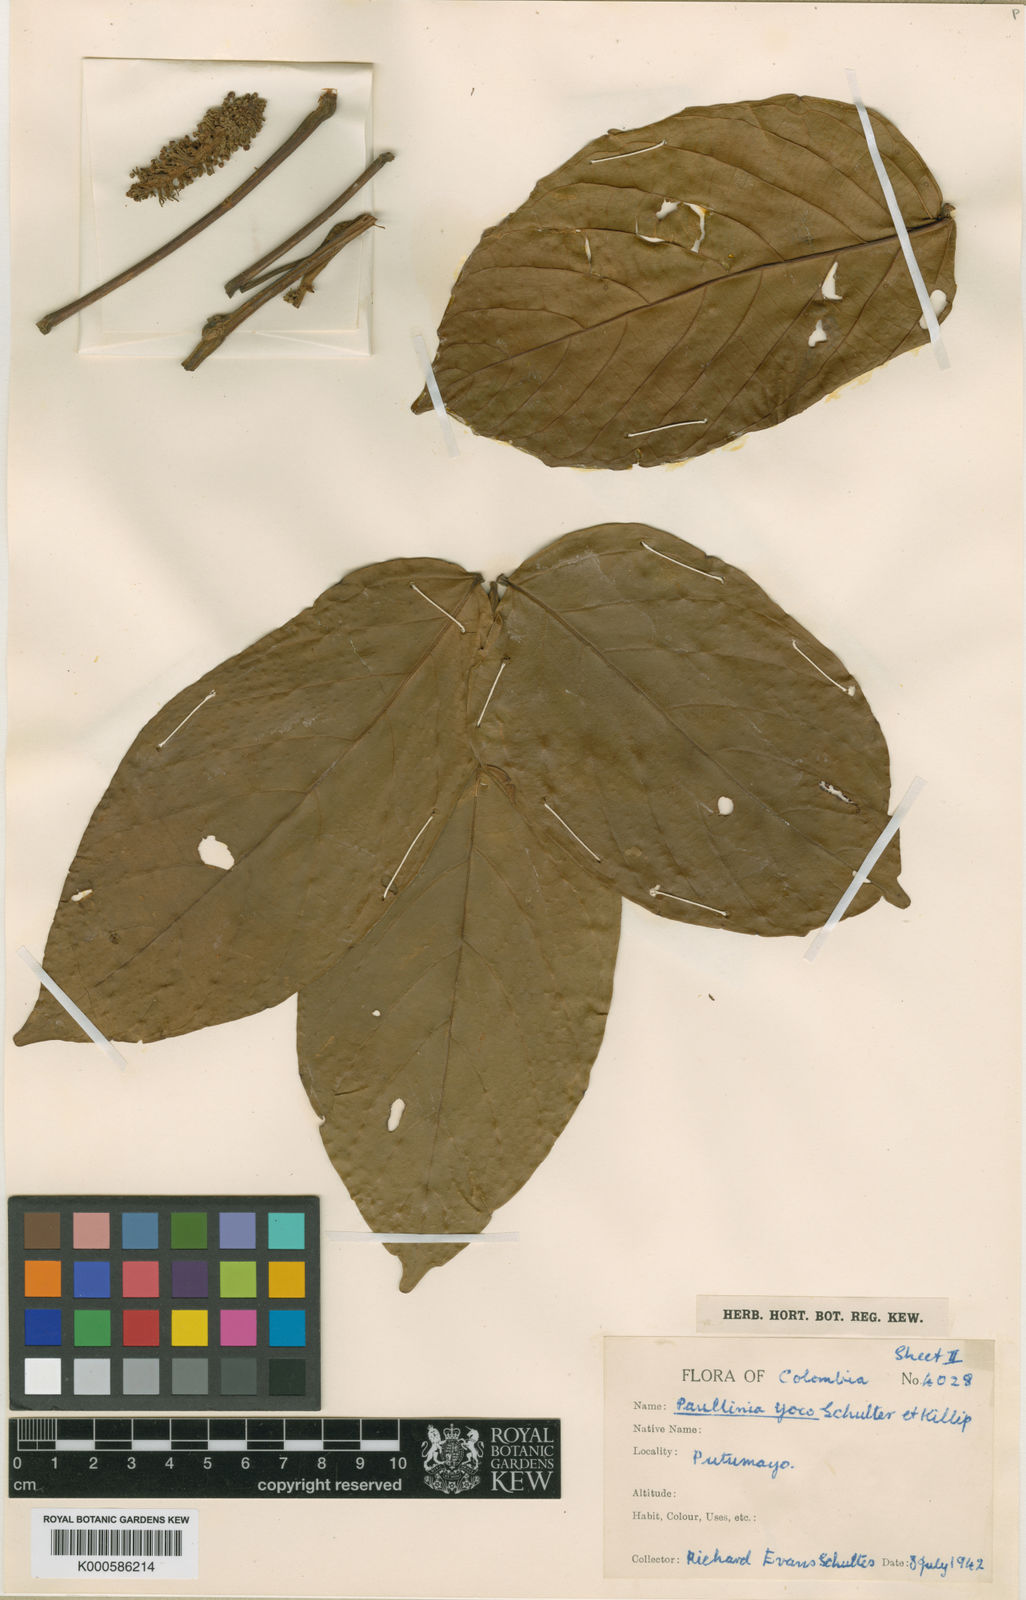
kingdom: Plantae
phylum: Tracheophyta
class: Magnoliopsida
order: Sapindales
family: Sapindaceae
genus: Paullinia
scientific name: Paullinia yoco
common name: Yoko
